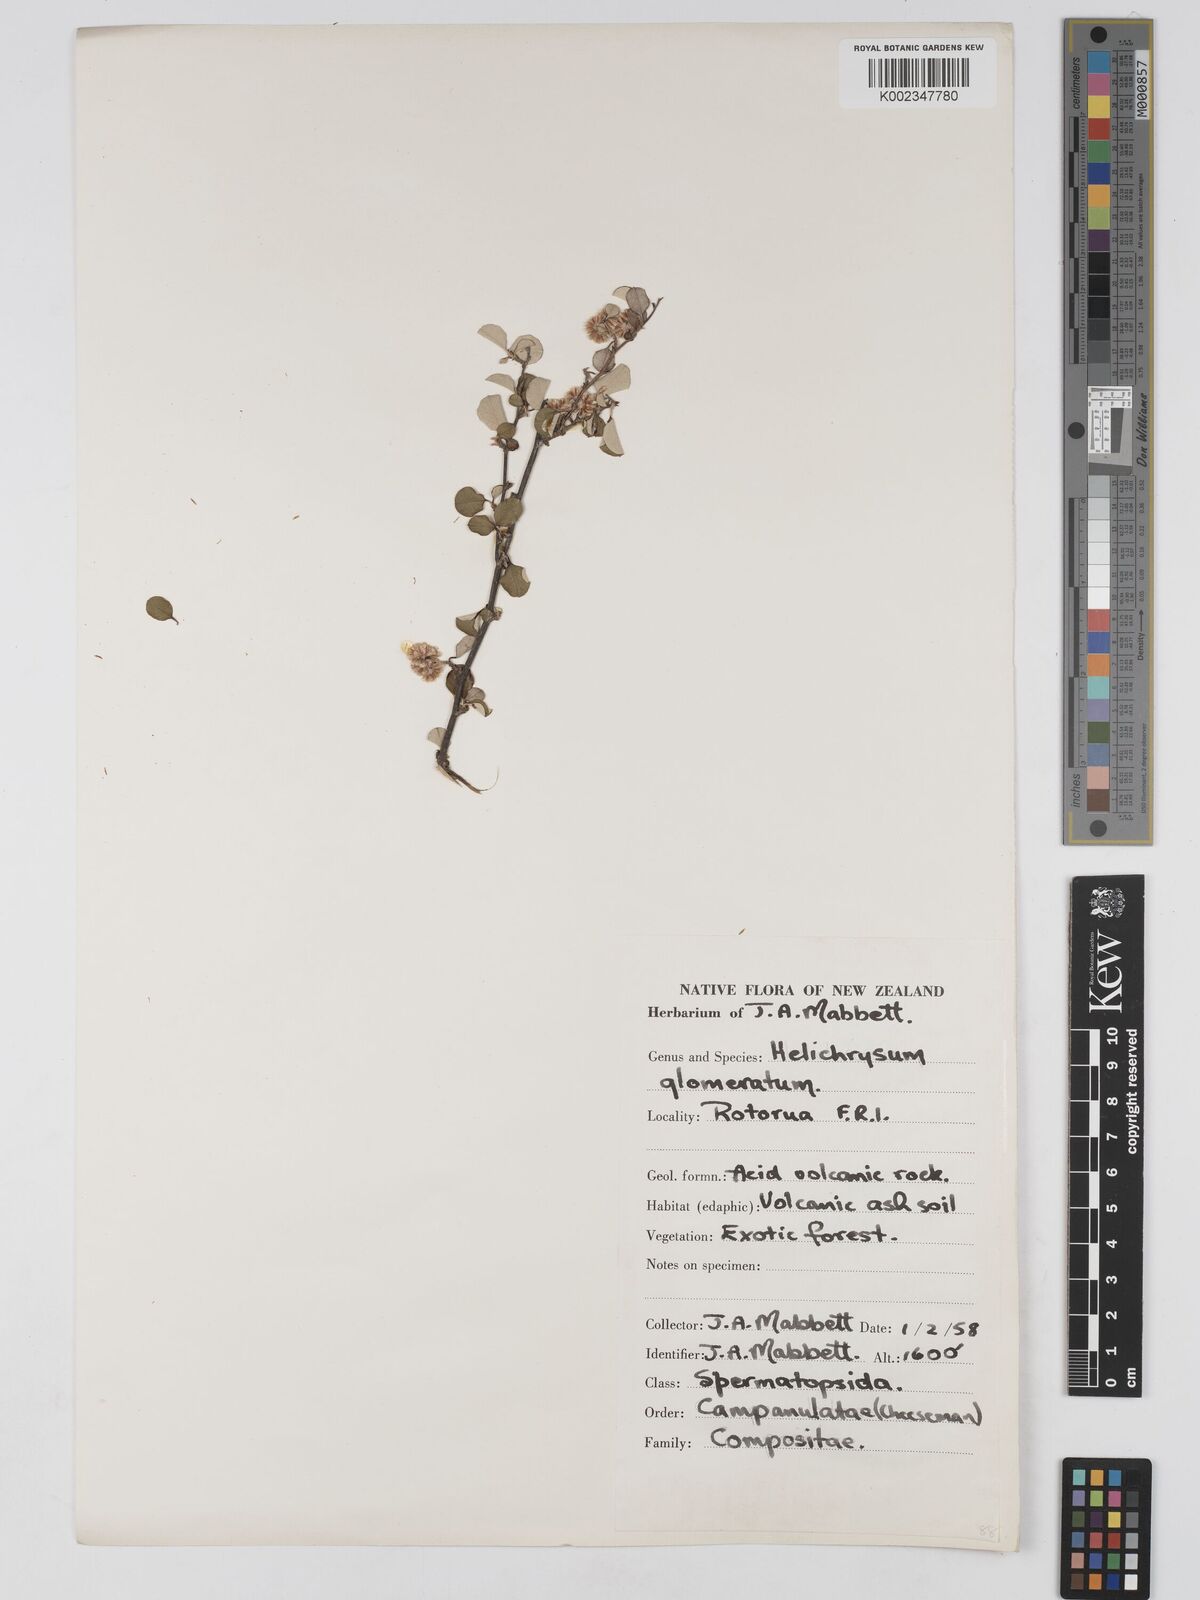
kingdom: Plantae
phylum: Tracheophyta
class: Magnoliopsida
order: Asterales
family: Asteraceae
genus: Ozothamnus
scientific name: Ozothamnus glomeratus
